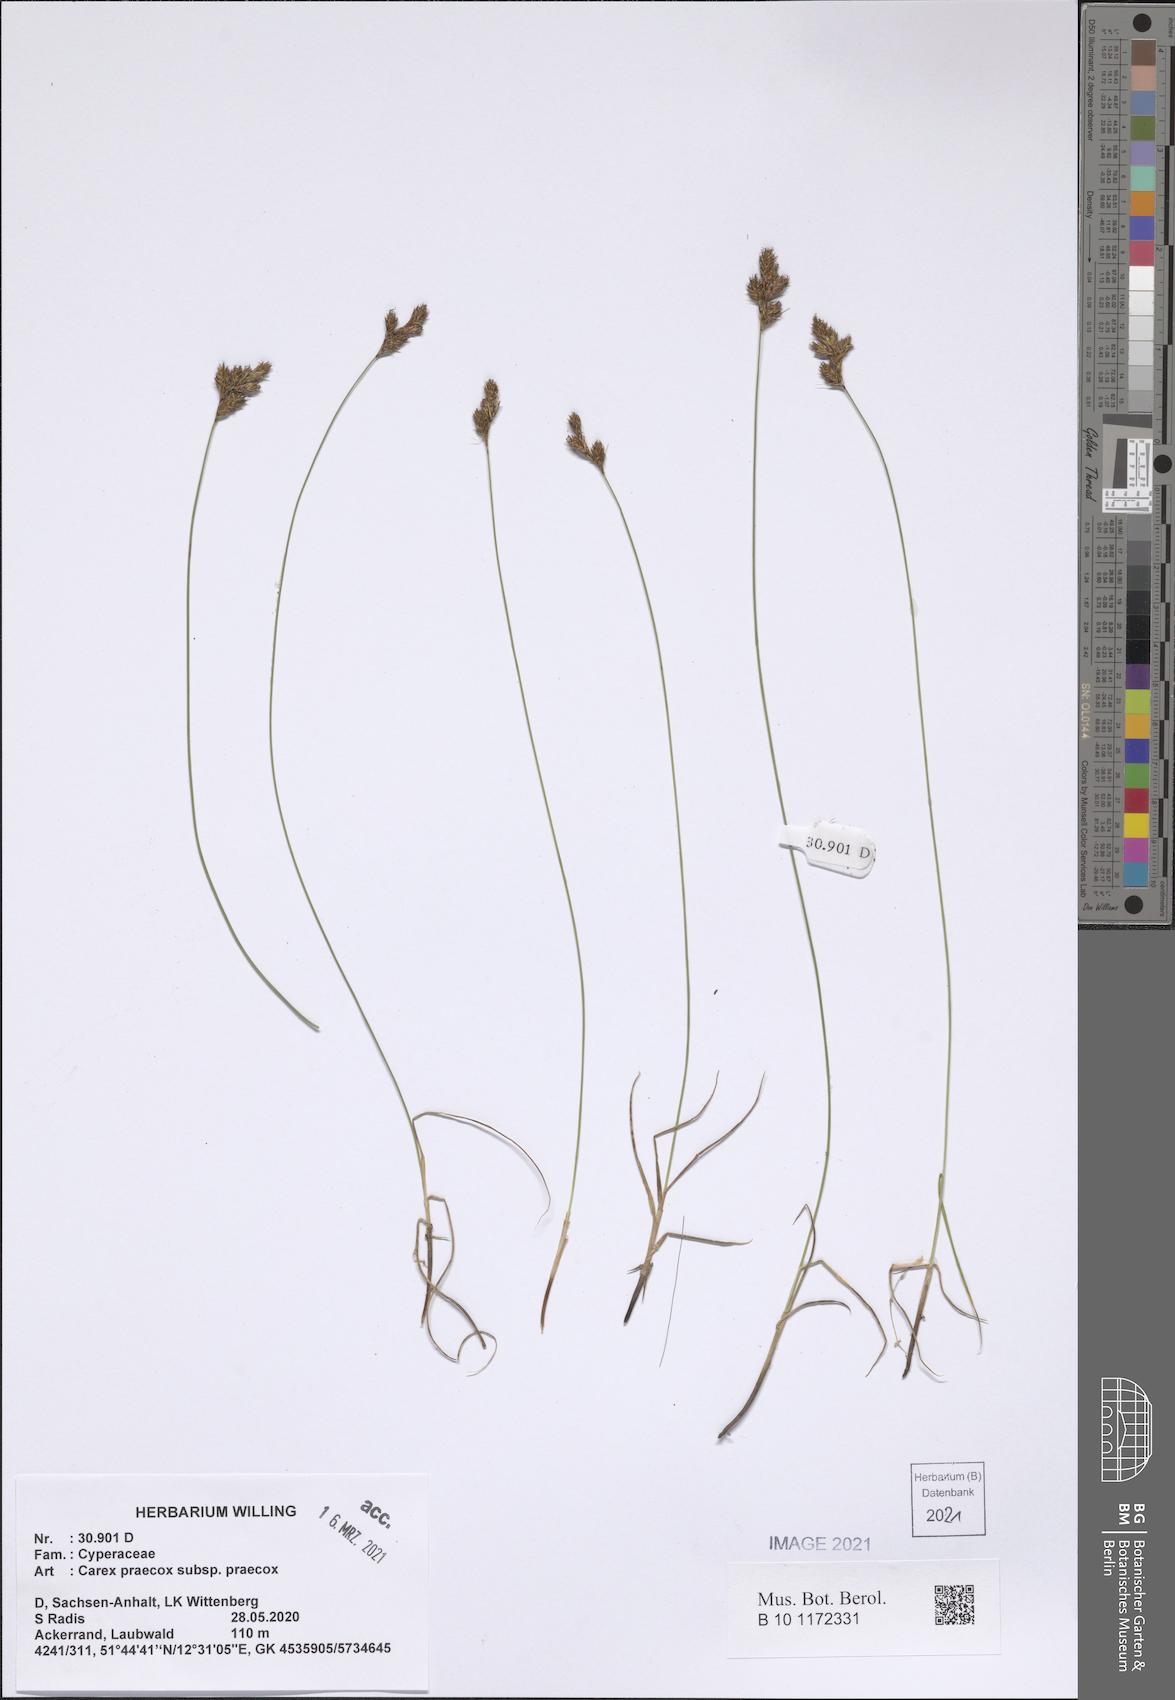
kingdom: Plantae
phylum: Tracheophyta
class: Liliopsida
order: Poales
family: Cyperaceae
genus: Carex
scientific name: Carex praecox
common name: Early sedge
